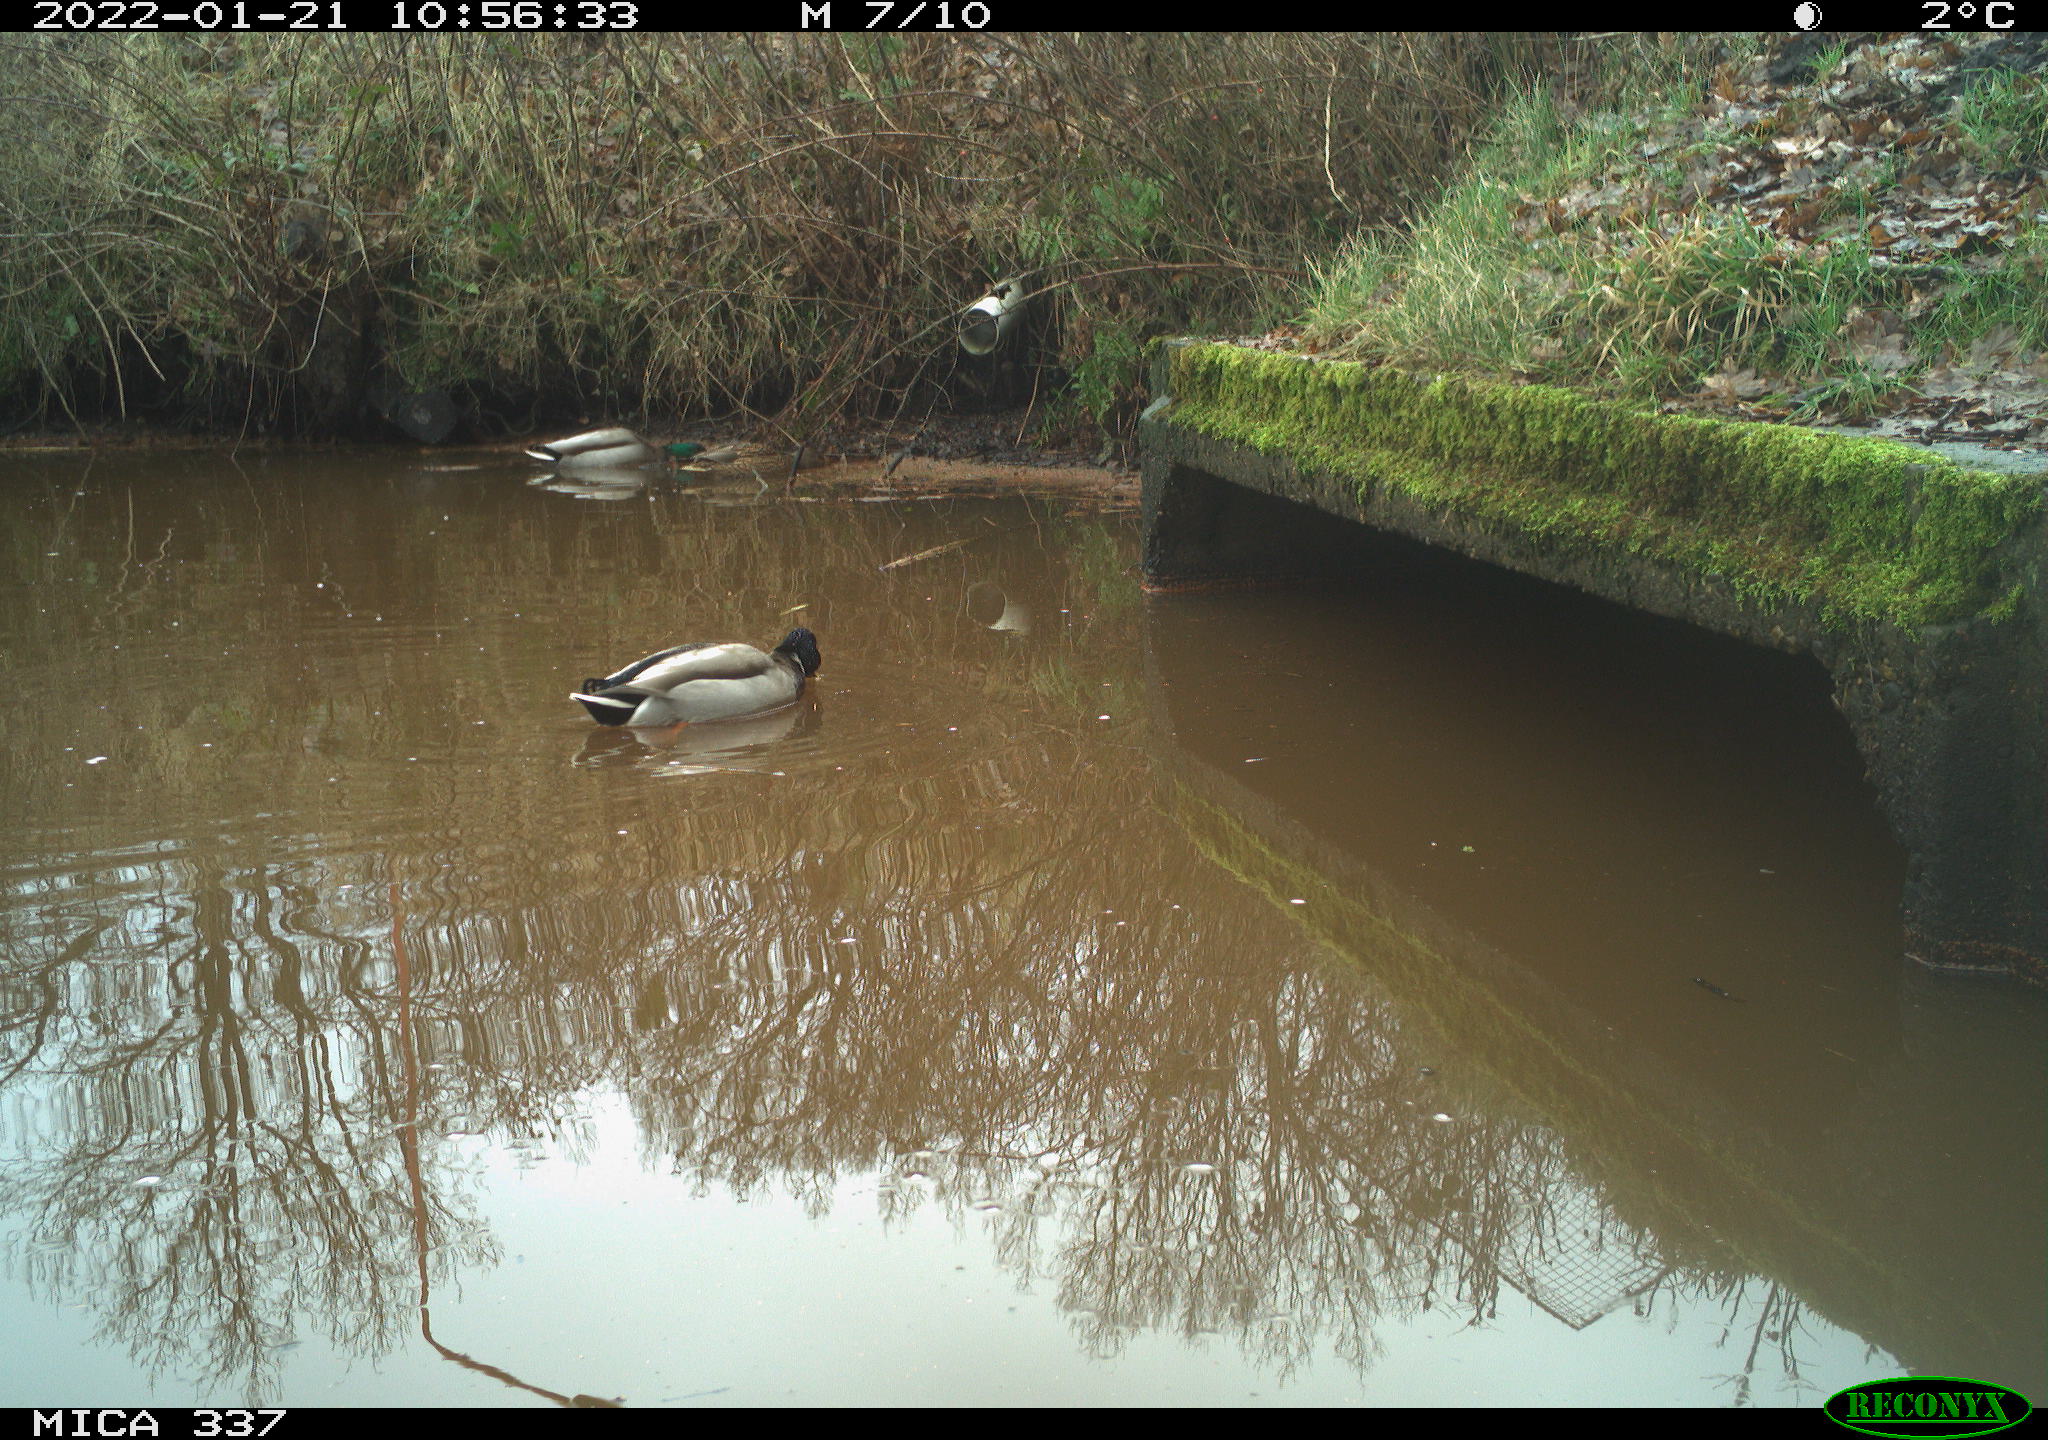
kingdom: Animalia
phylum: Chordata
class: Aves
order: Anseriformes
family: Anatidae
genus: Anas
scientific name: Anas platyrhynchos
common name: Mallard
